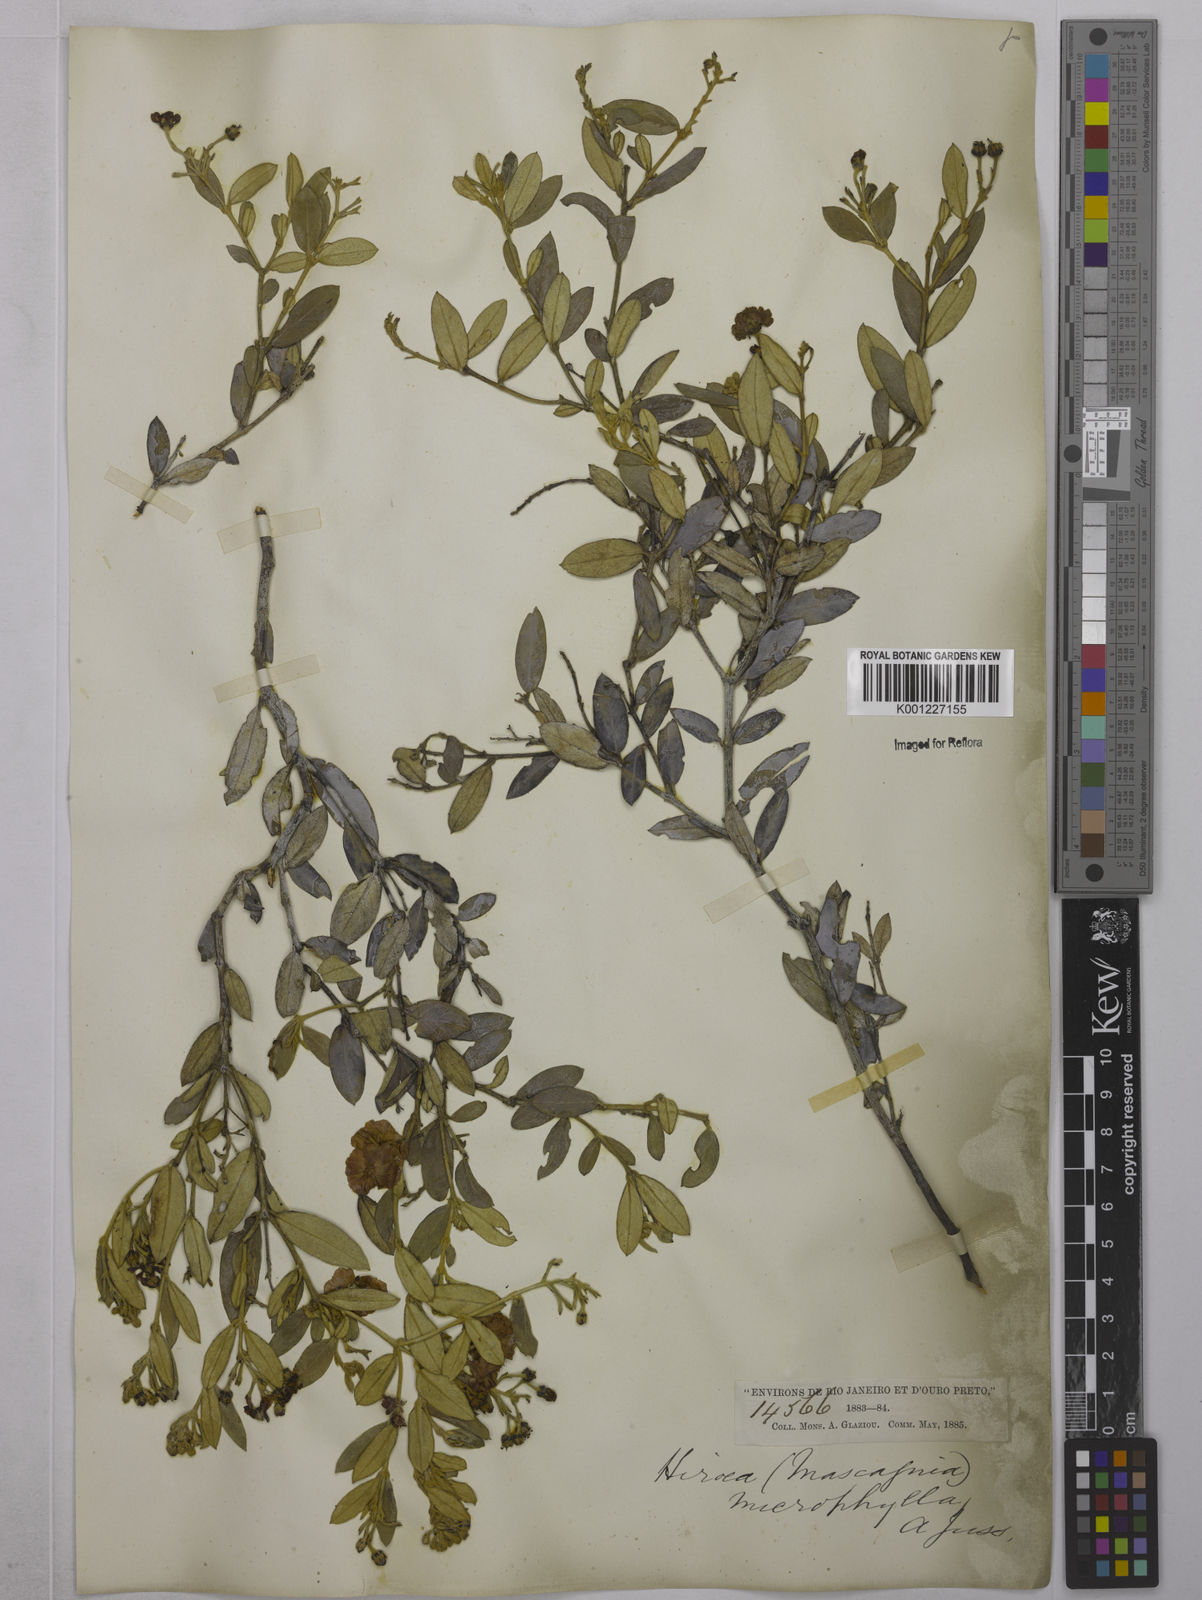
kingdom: Plantae
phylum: Tracheophyta
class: Magnoliopsida
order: Malpighiales
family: Malpighiaceae
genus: Glicophyllum
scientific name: Glicophyllum microphyllum
